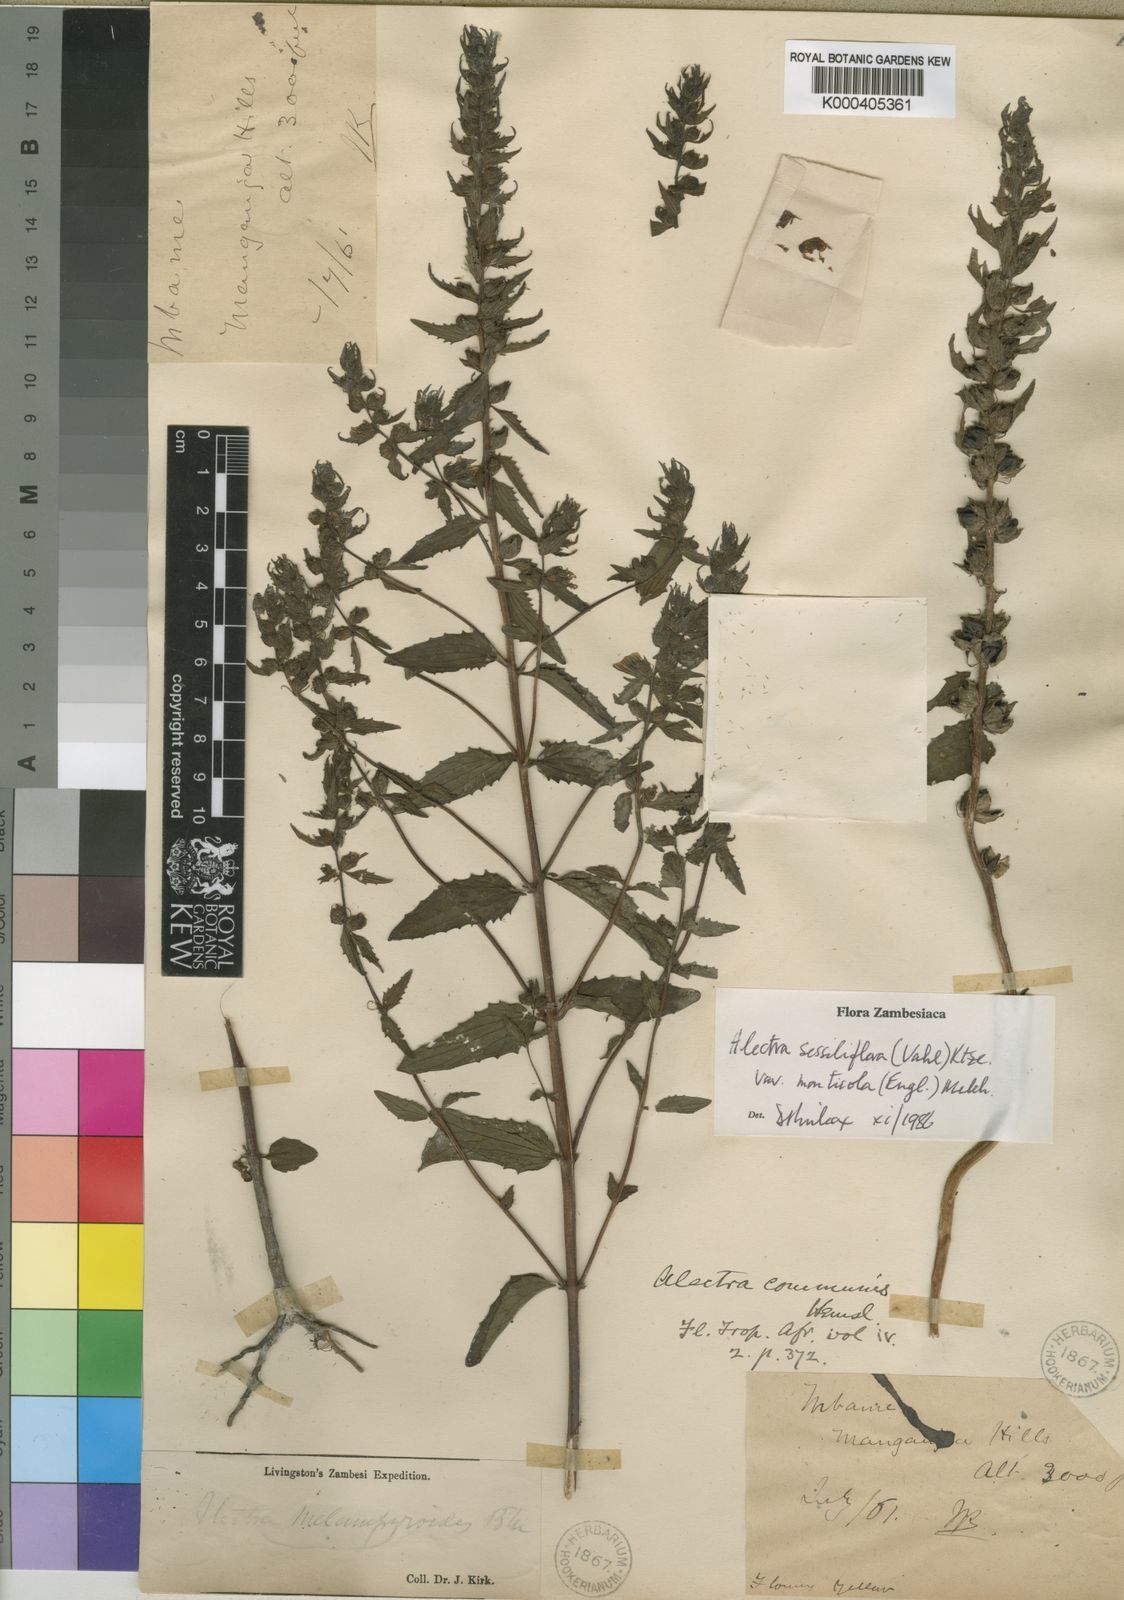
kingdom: Plantae
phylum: Tracheophyta
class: Magnoliopsida
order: Lamiales
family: Orobanchaceae
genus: Alectra
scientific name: Alectra sessiliflora
